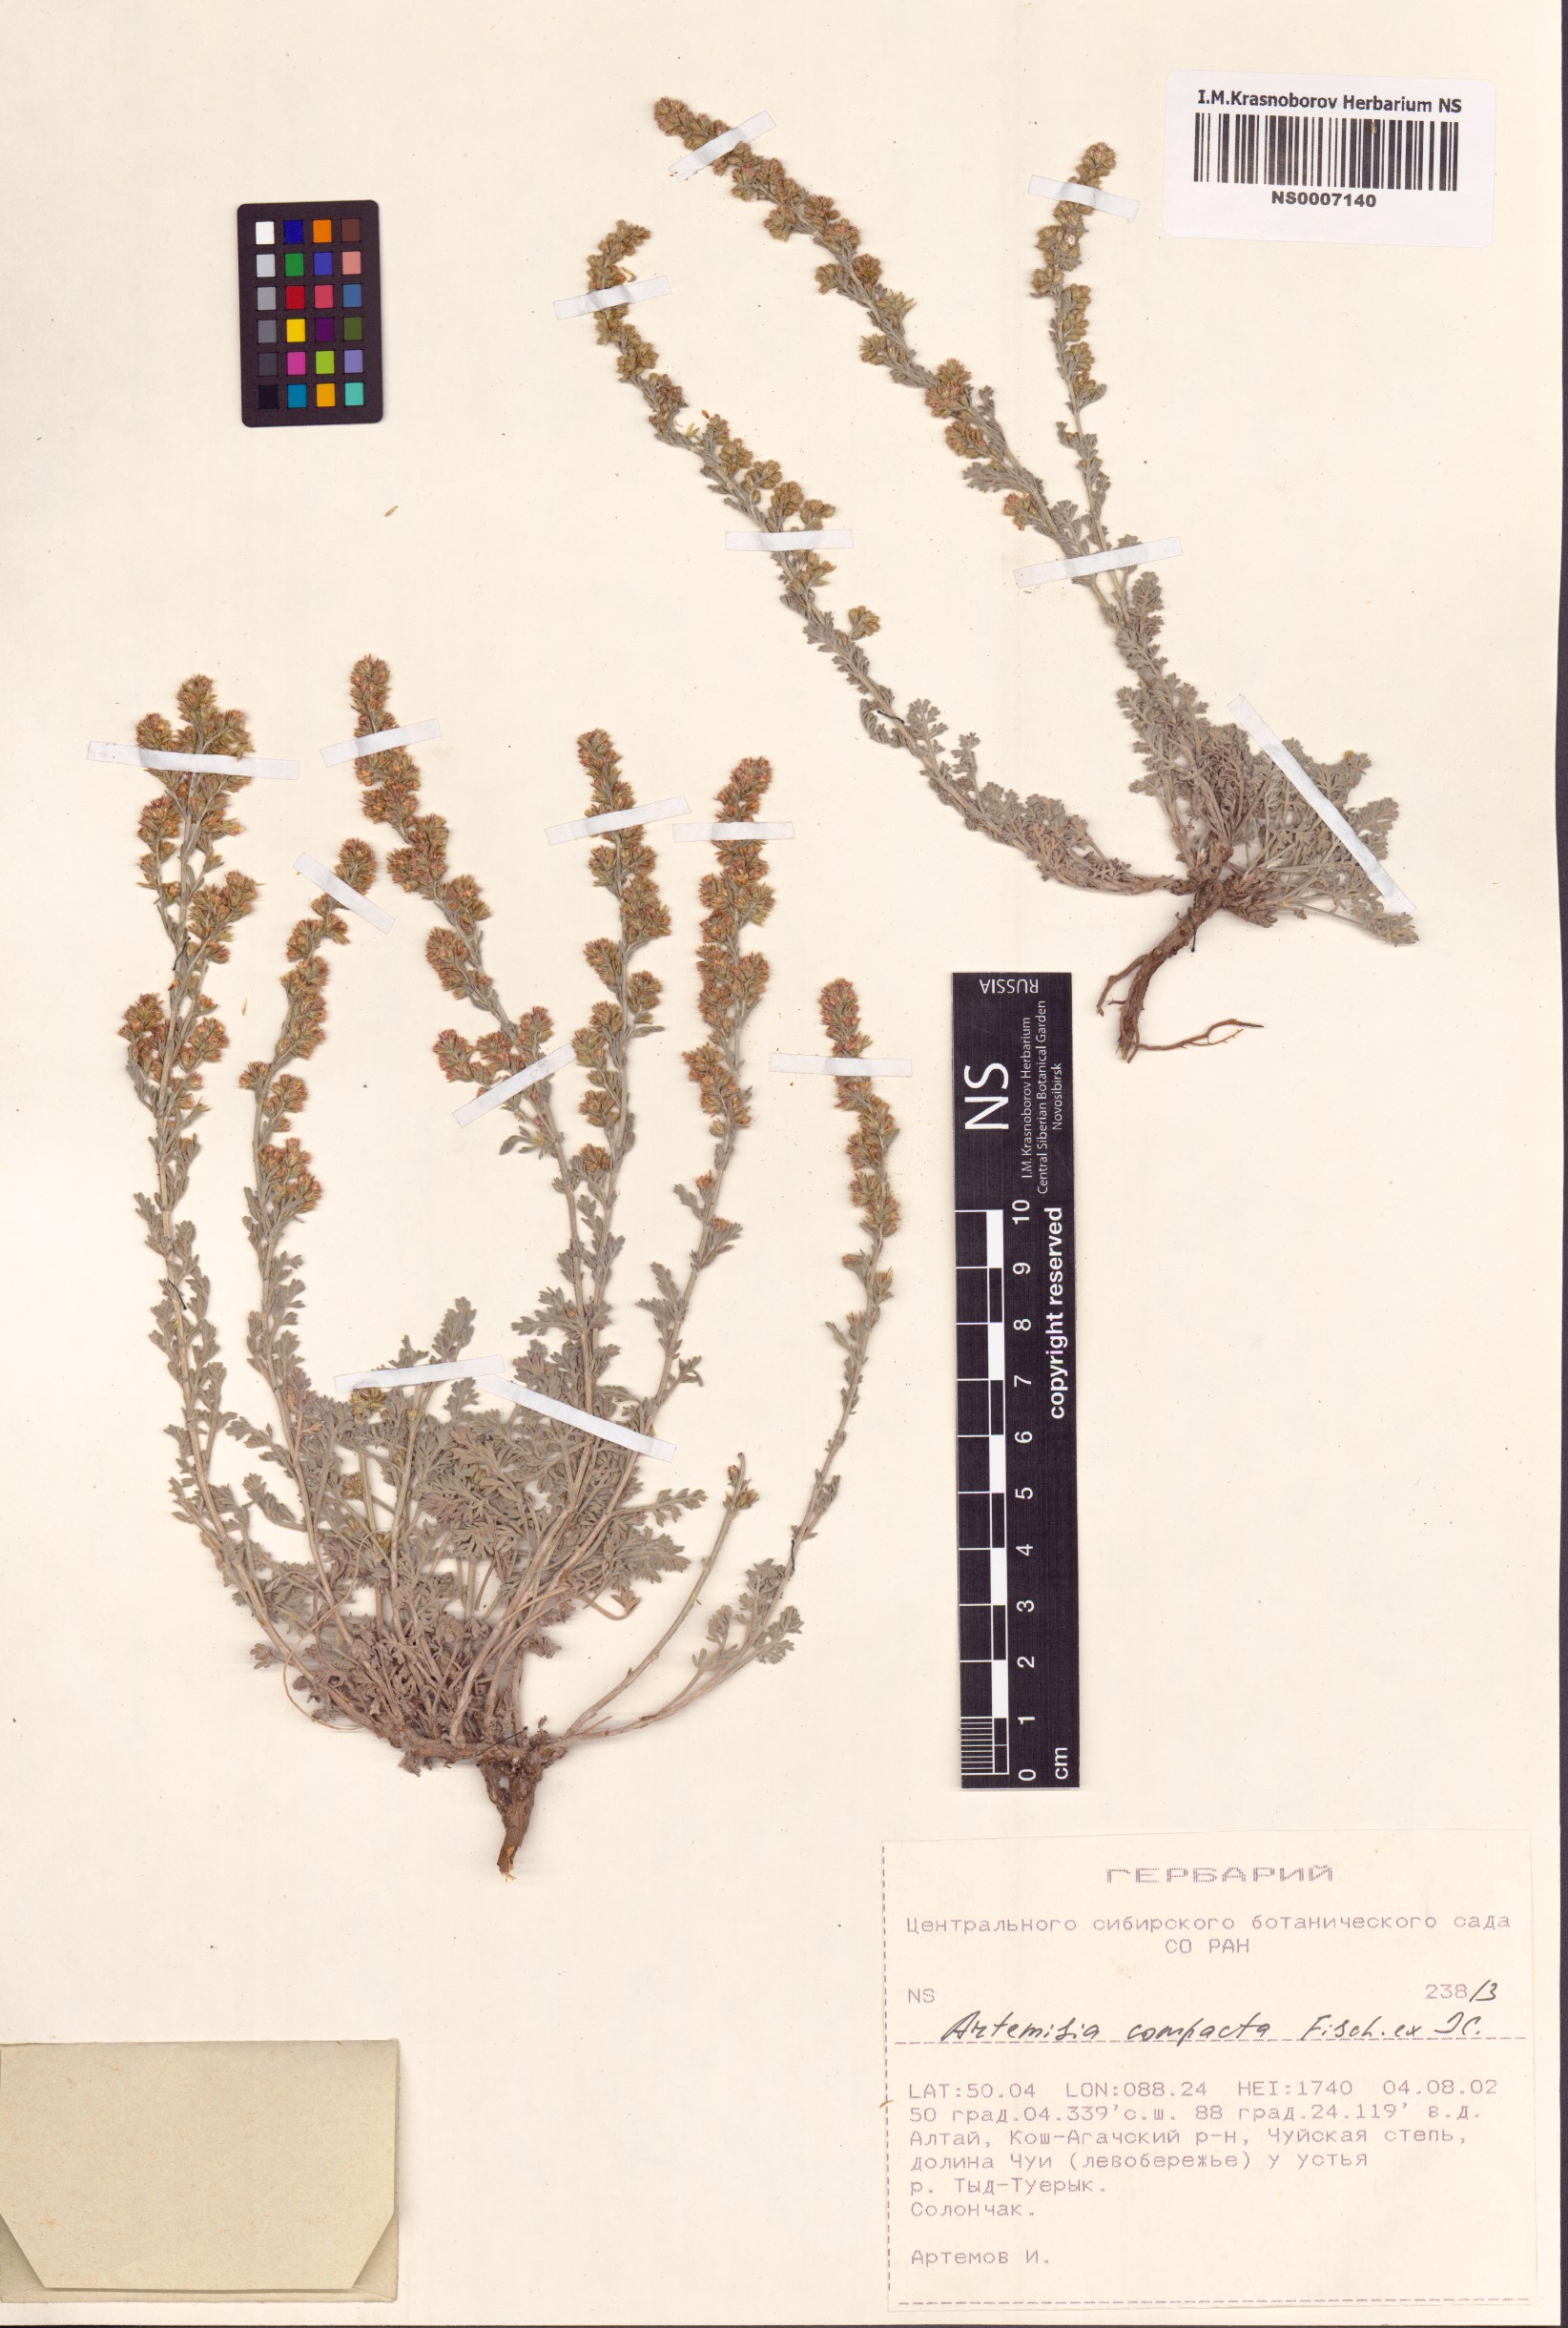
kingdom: Plantae
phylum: Tracheophyta
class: Magnoliopsida
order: Asterales
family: Asteraceae
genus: Artemisia
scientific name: Artemisia compacta
